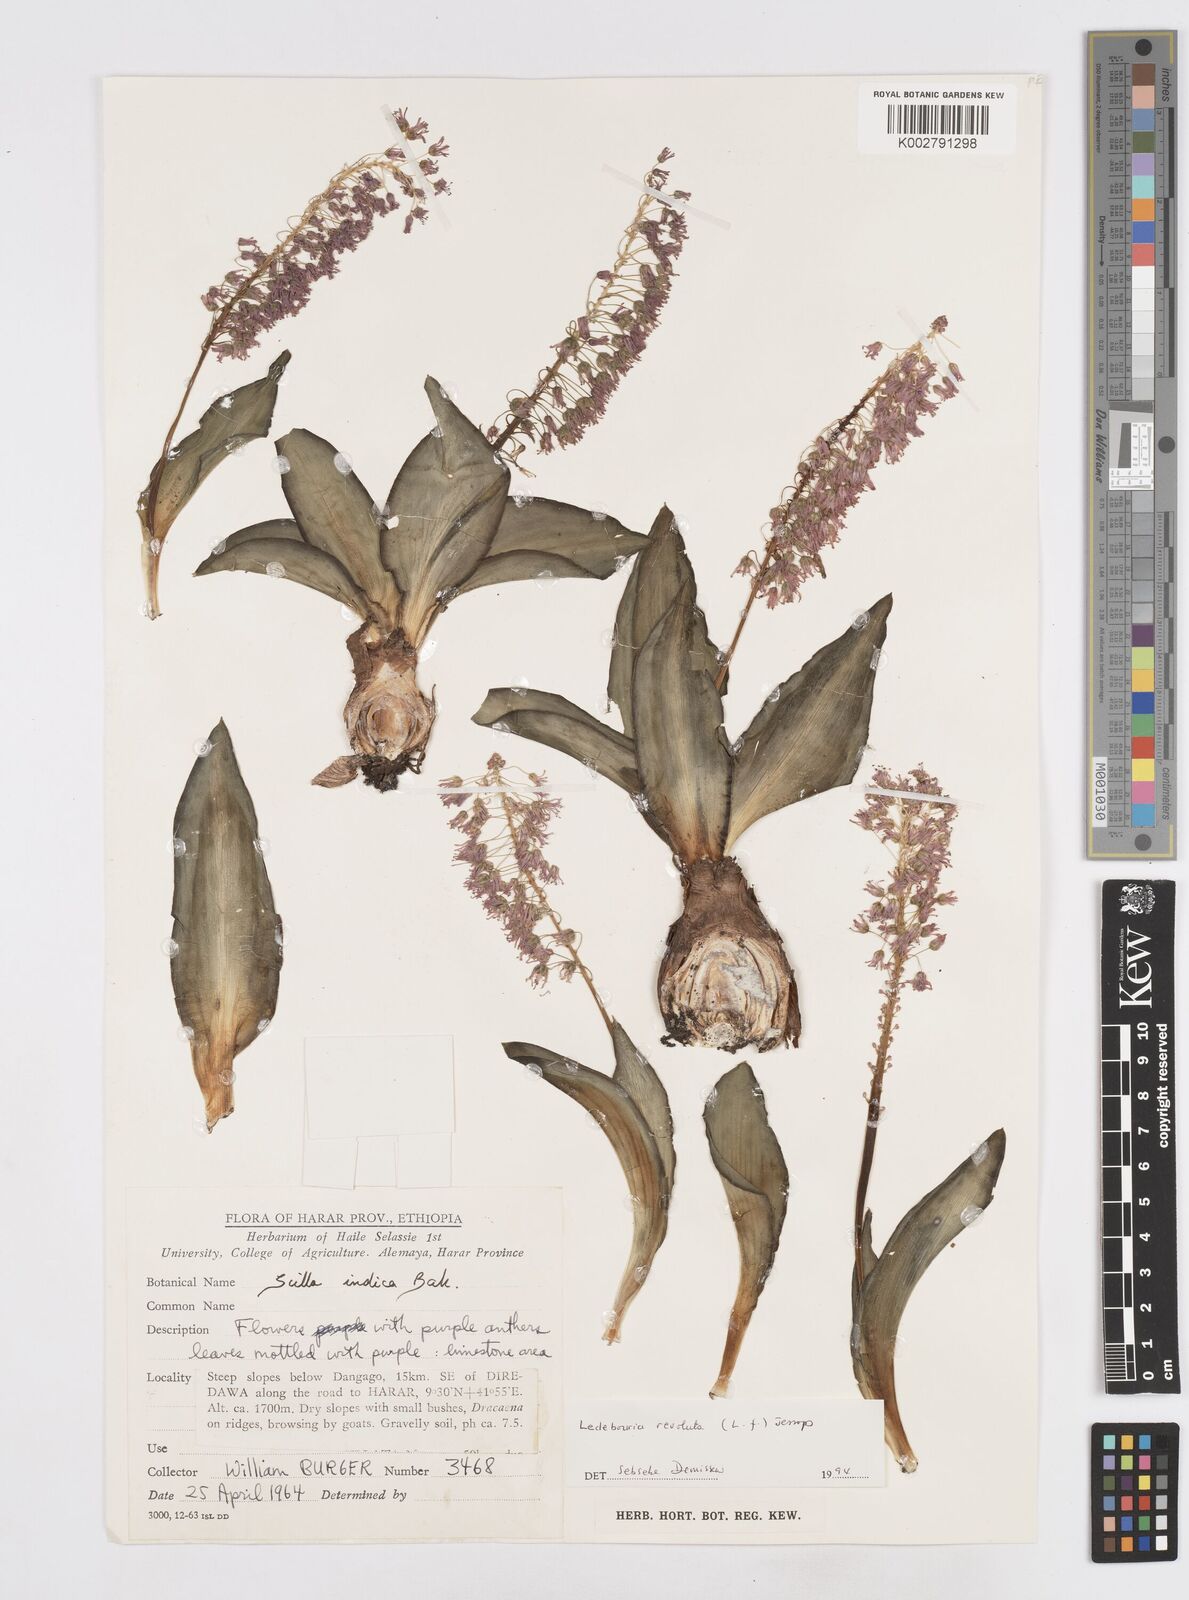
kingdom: Plantae
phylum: Tracheophyta
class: Liliopsida
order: Asparagales
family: Asparagaceae
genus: Ledebouria
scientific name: Ledebouria revoluta
